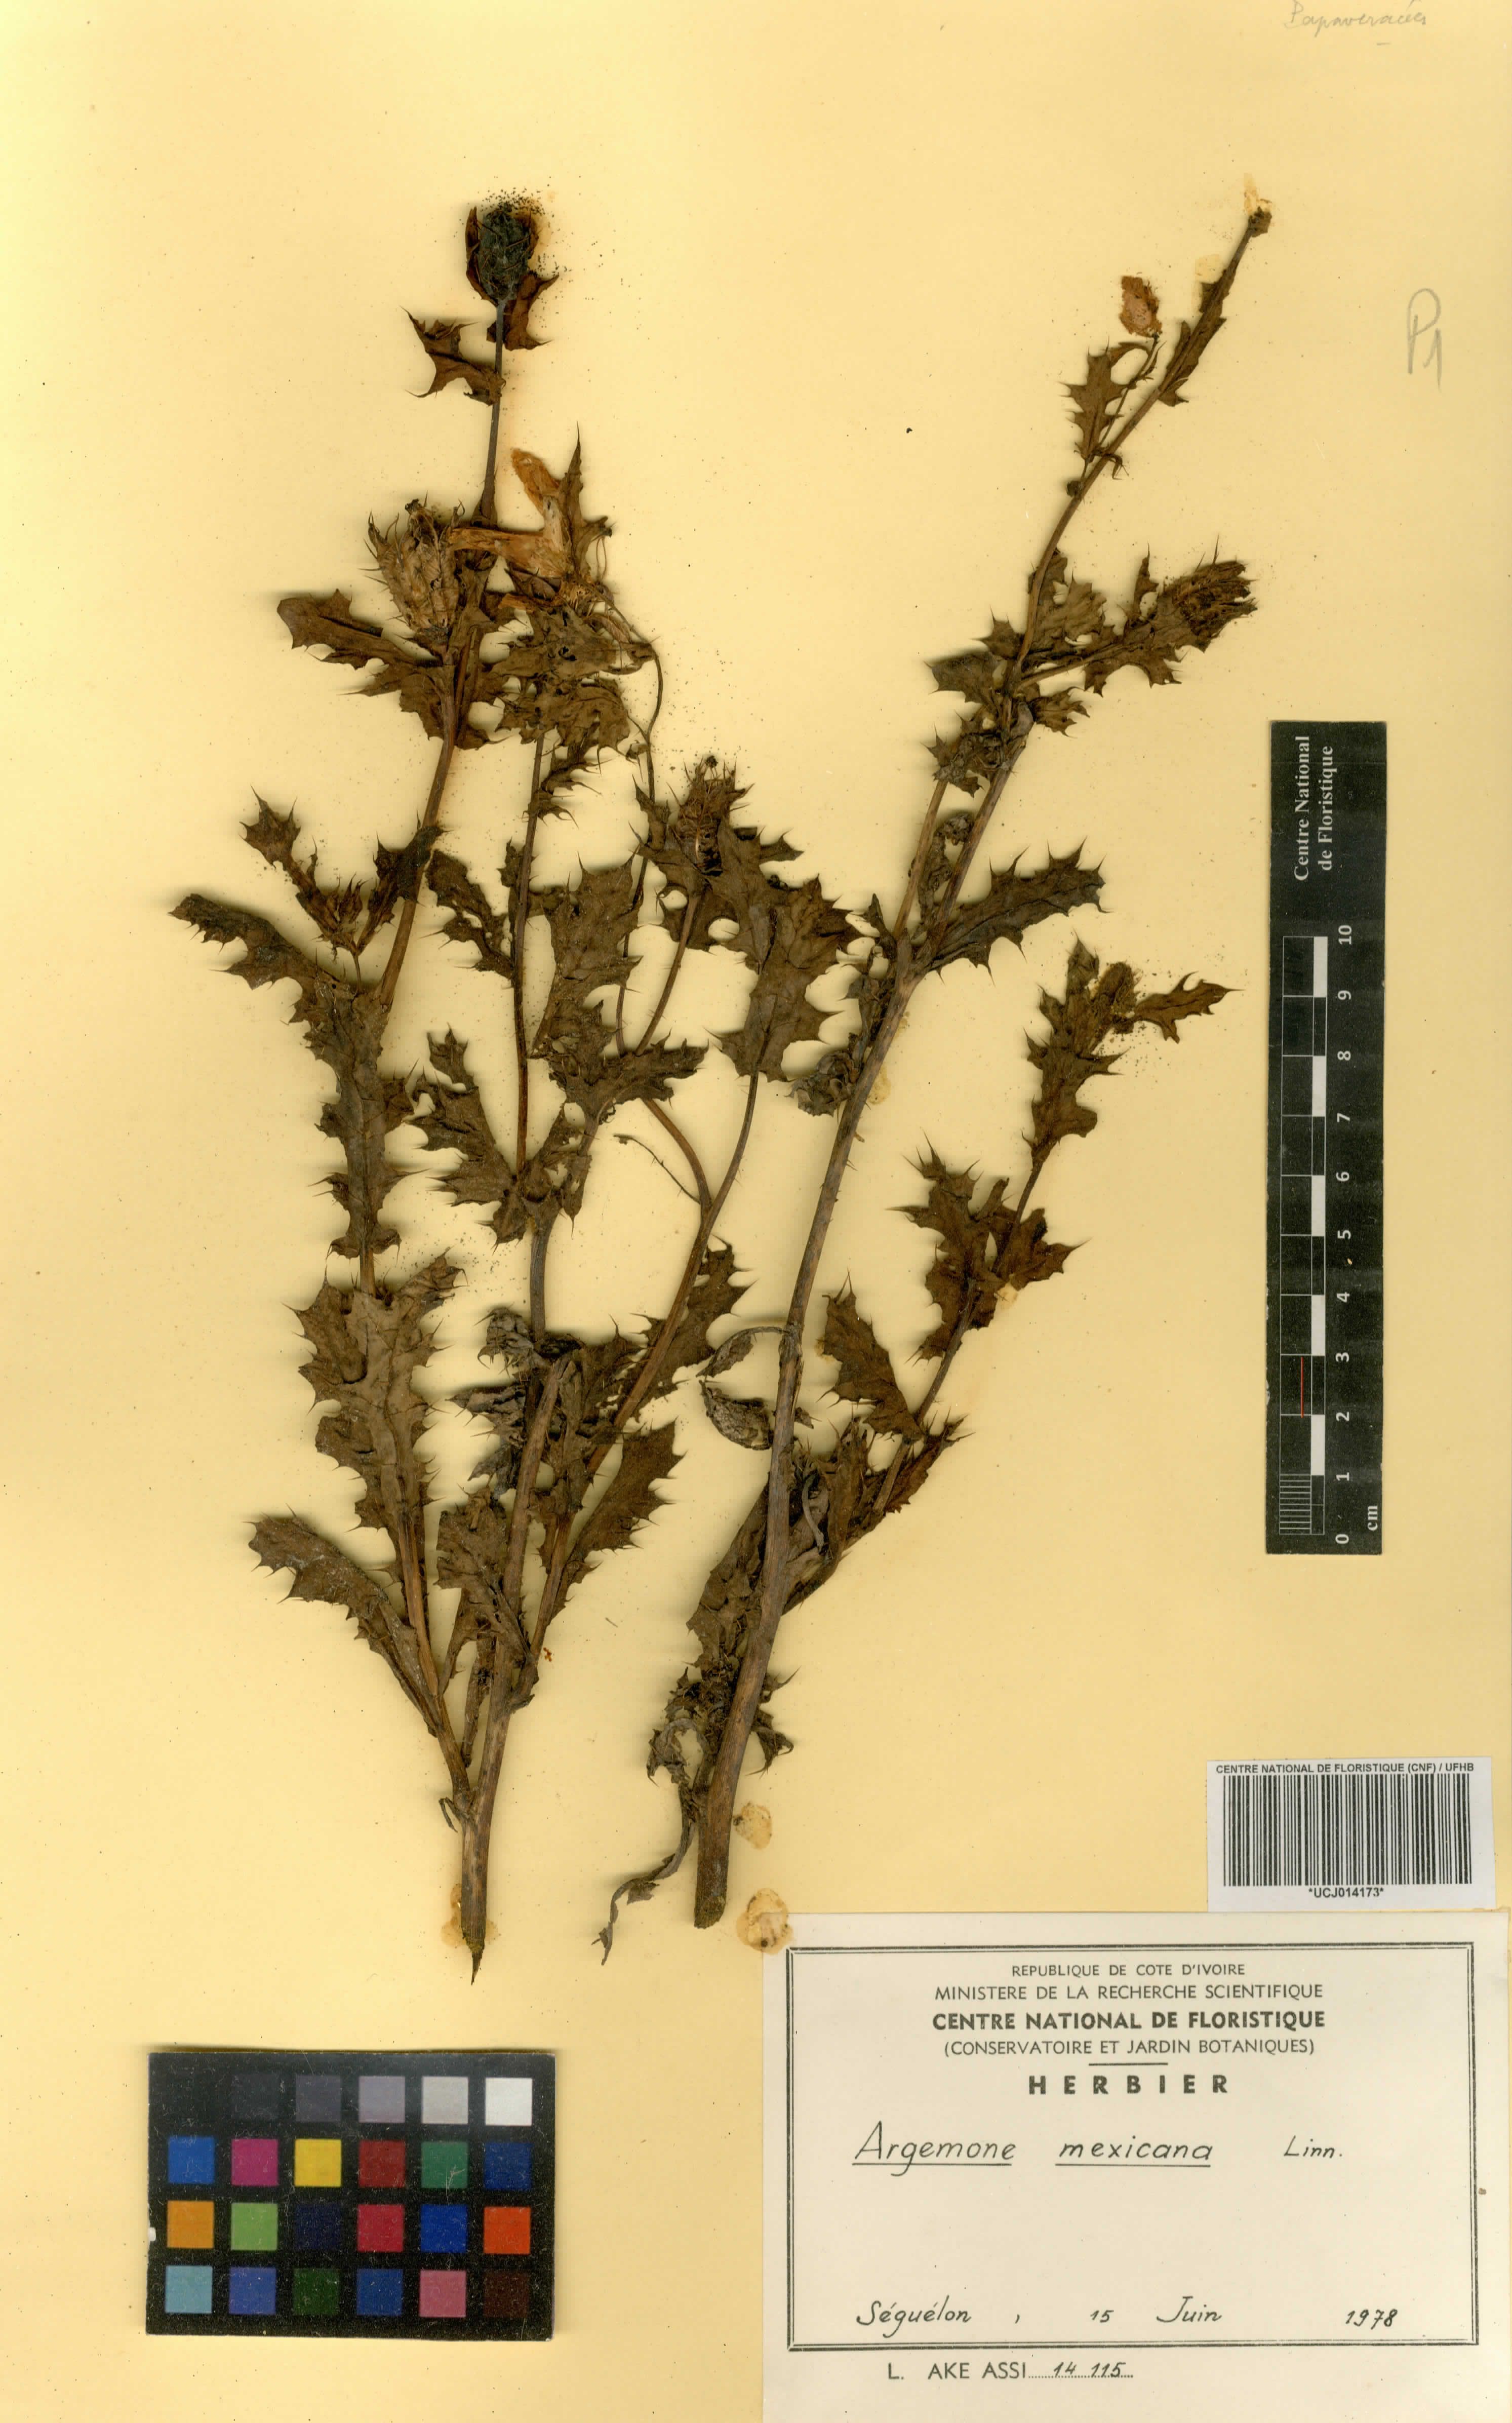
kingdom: Plantae
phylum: Tracheophyta
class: Magnoliopsida
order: Ranunculales
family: Papaveraceae
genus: Argemone
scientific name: Argemone mexicana
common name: Mexican poppy
